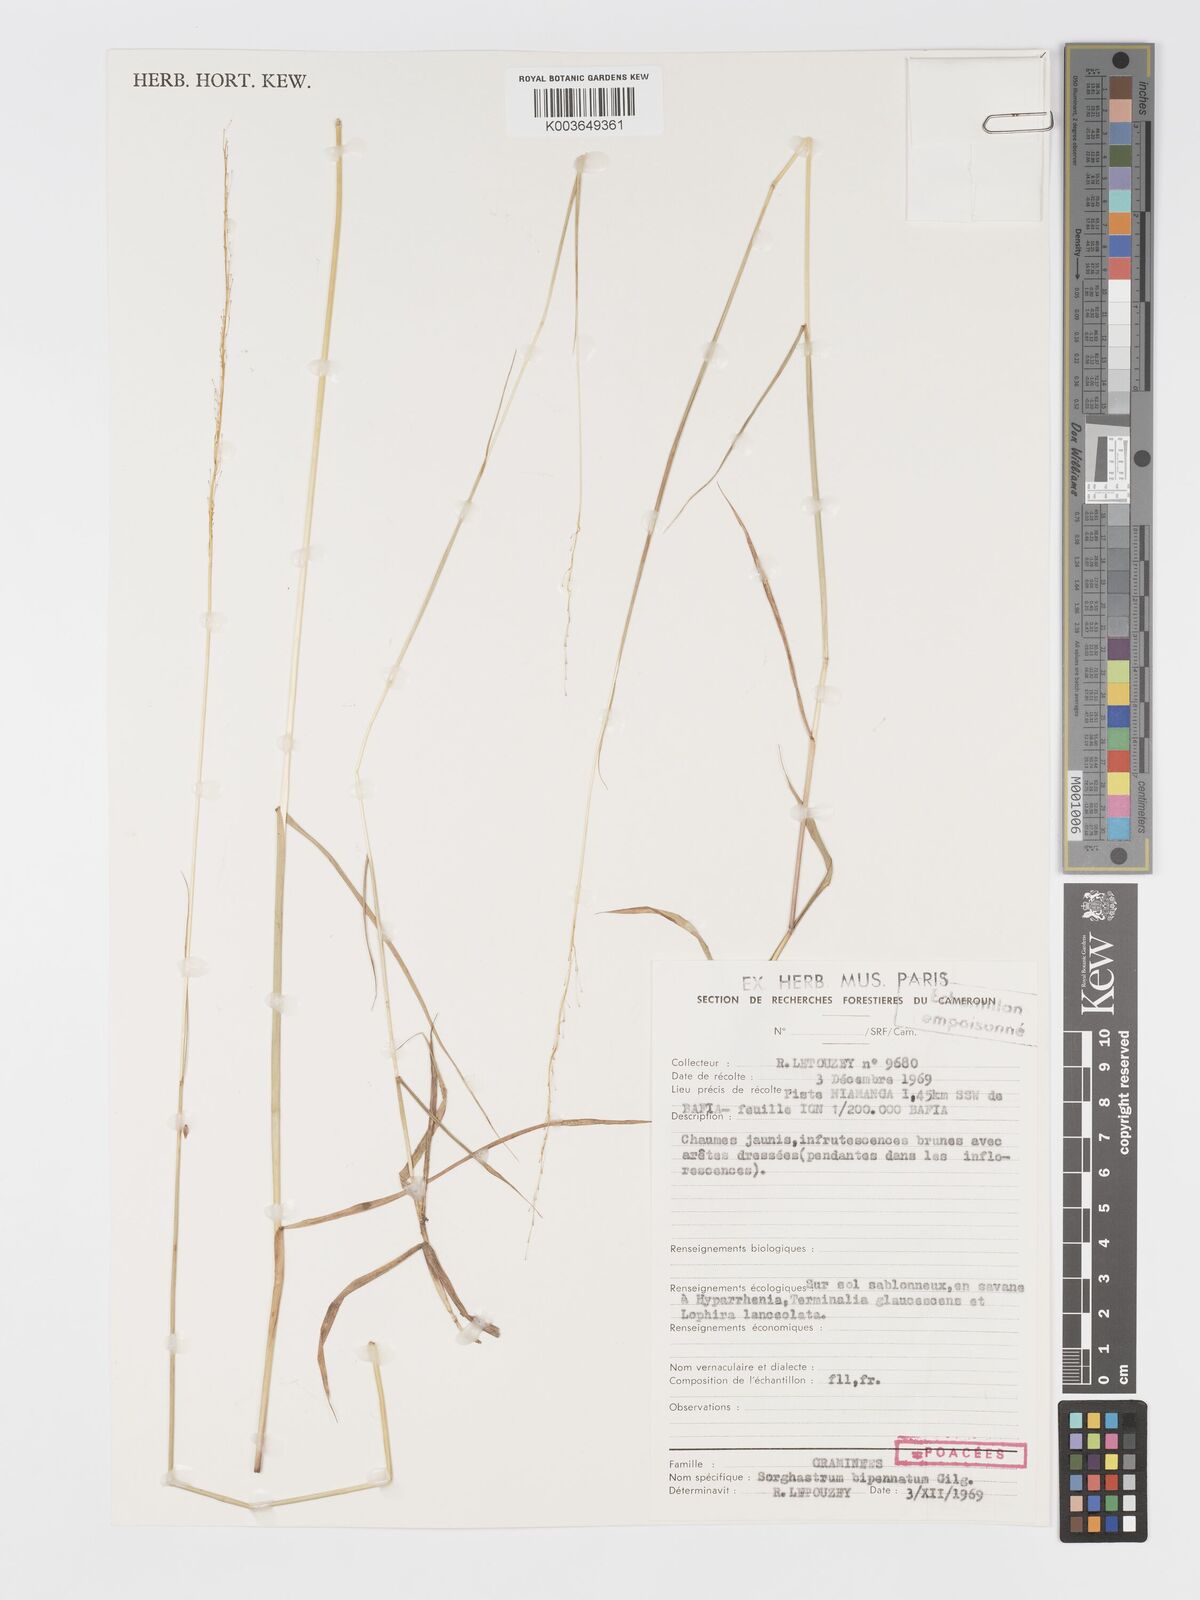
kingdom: Plantae
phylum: Tracheophyta
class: Liliopsida
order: Poales
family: Poaceae
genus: Sorghastrum
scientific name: Sorghastrum incompletum
